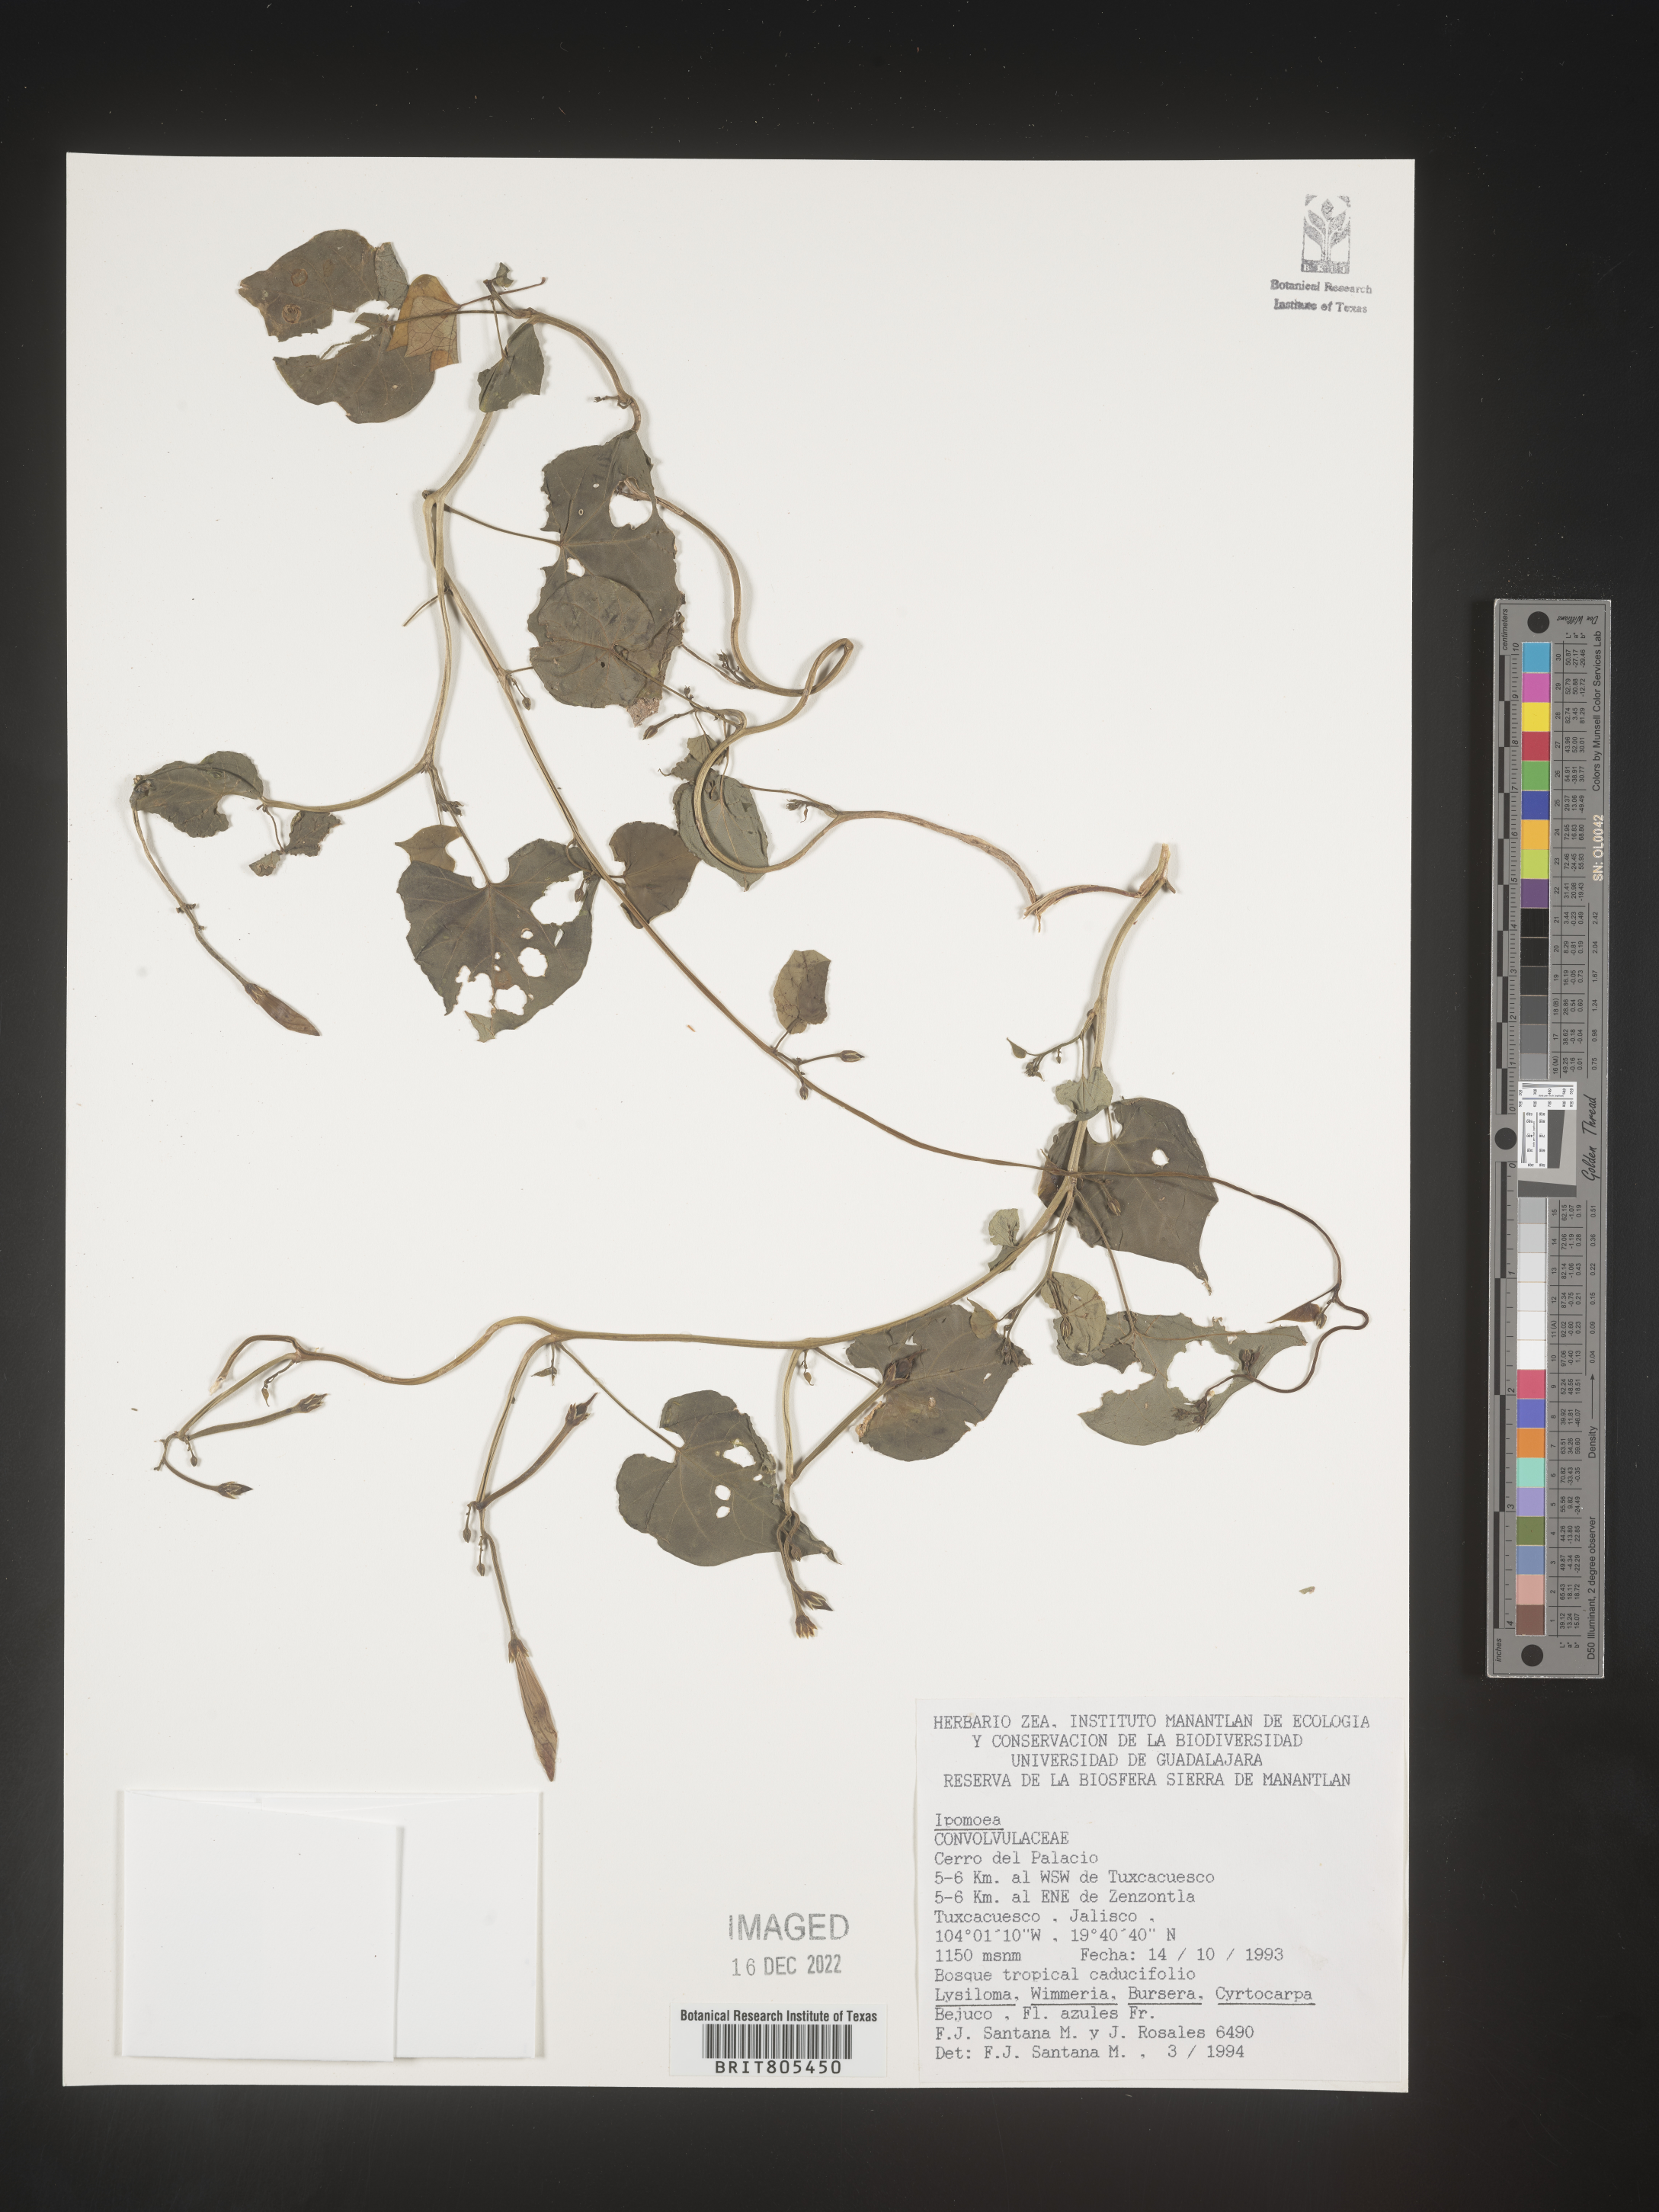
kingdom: Plantae
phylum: Tracheophyta
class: Magnoliopsida
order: Solanales
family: Convolvulaceae
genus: Ipomoea
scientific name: Ipomoea
